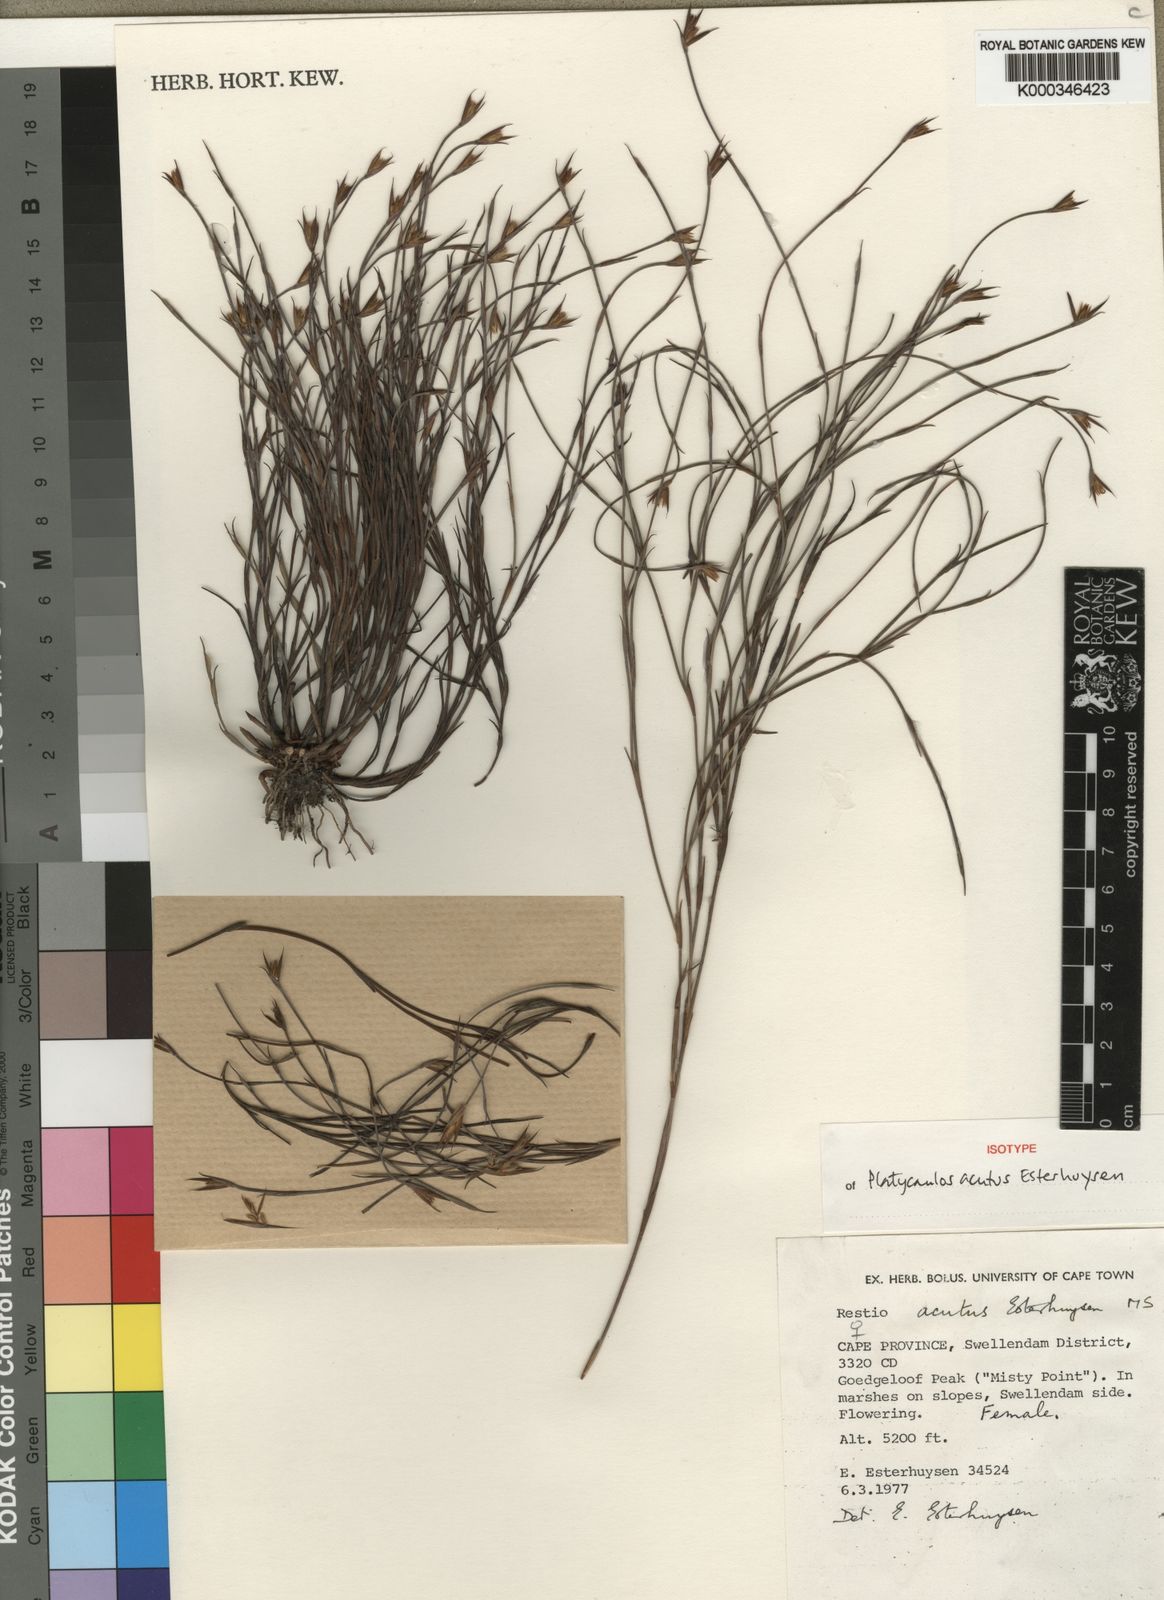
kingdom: Plantae
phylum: Tracheophyta
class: Liliopsida
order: Poales
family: Restionaceae
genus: Platycaulos
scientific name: Platycaulos acutus
